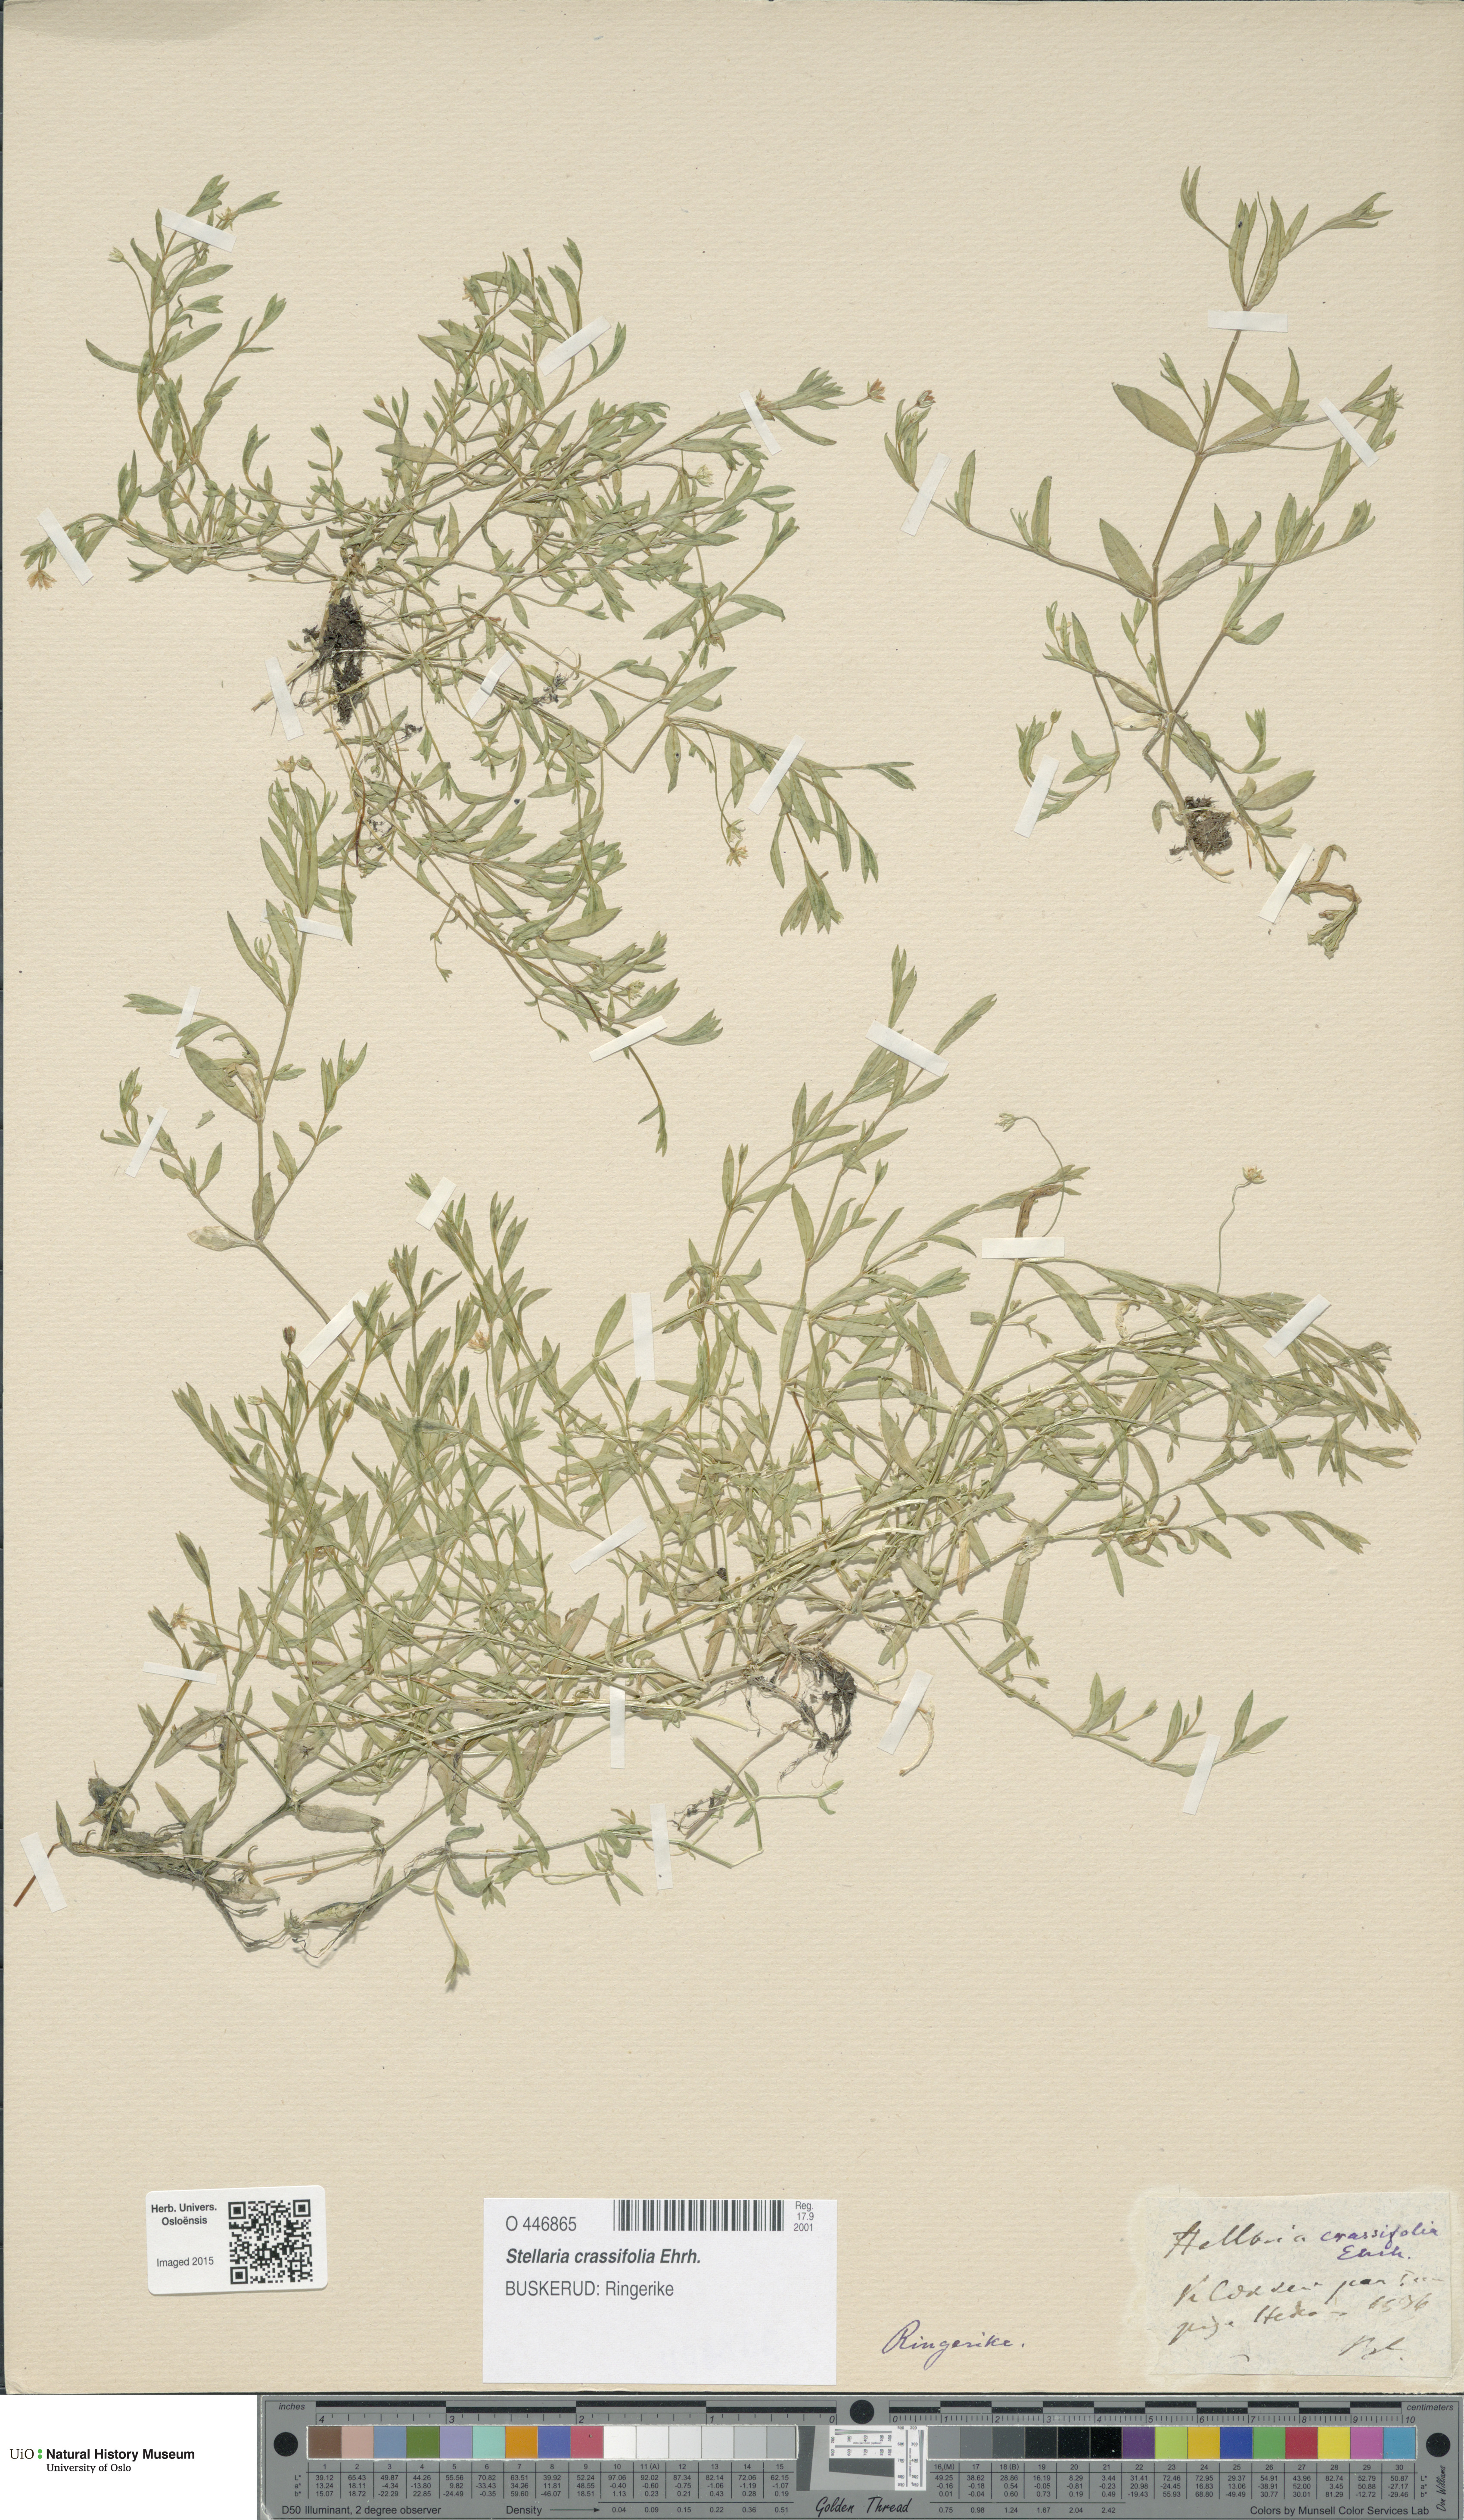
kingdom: Plantae
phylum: Tracheophyta
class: Magnoliopsida
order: Caryophyllales
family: Caryophyllaceae
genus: Stellaria
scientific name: Stellaria crassifolia
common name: Fleshy starwort
